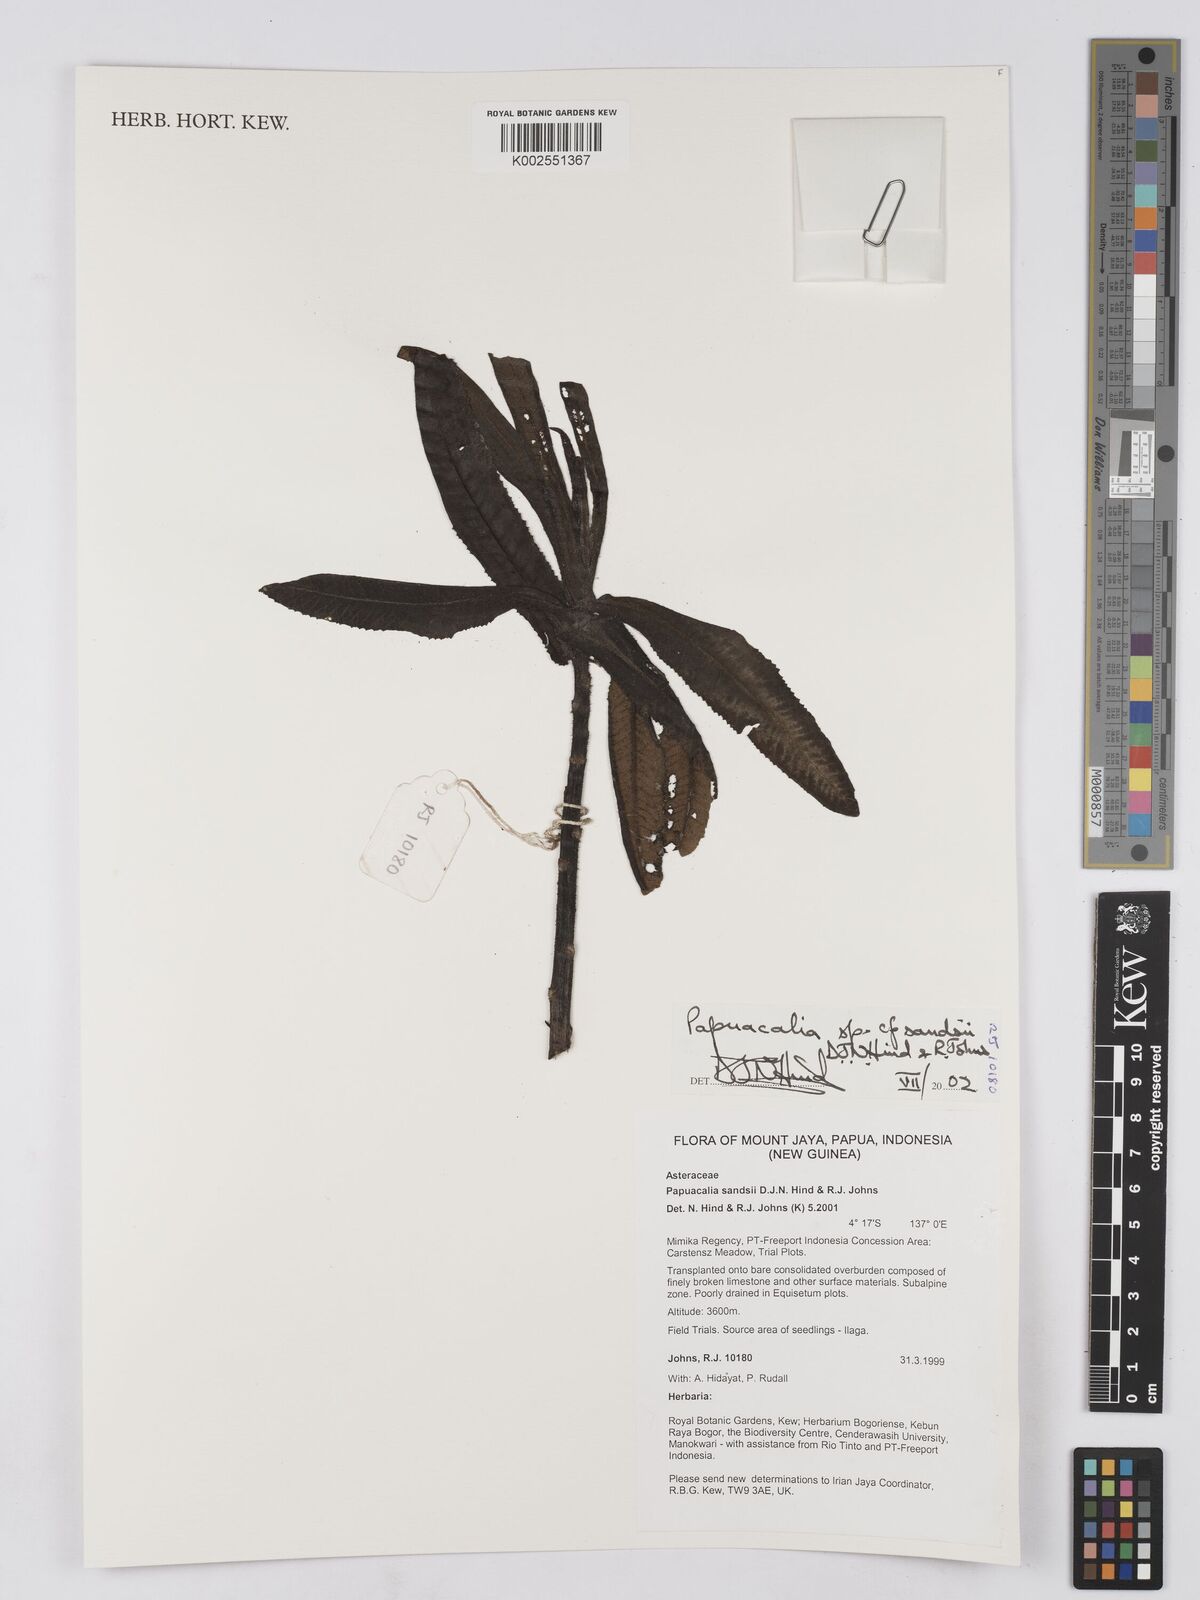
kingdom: Plantae
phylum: Tracheophyta
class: Magnoliopsida
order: Asterales
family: Asteraceae
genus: Papuacalia
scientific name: Papuacalia sandsii
